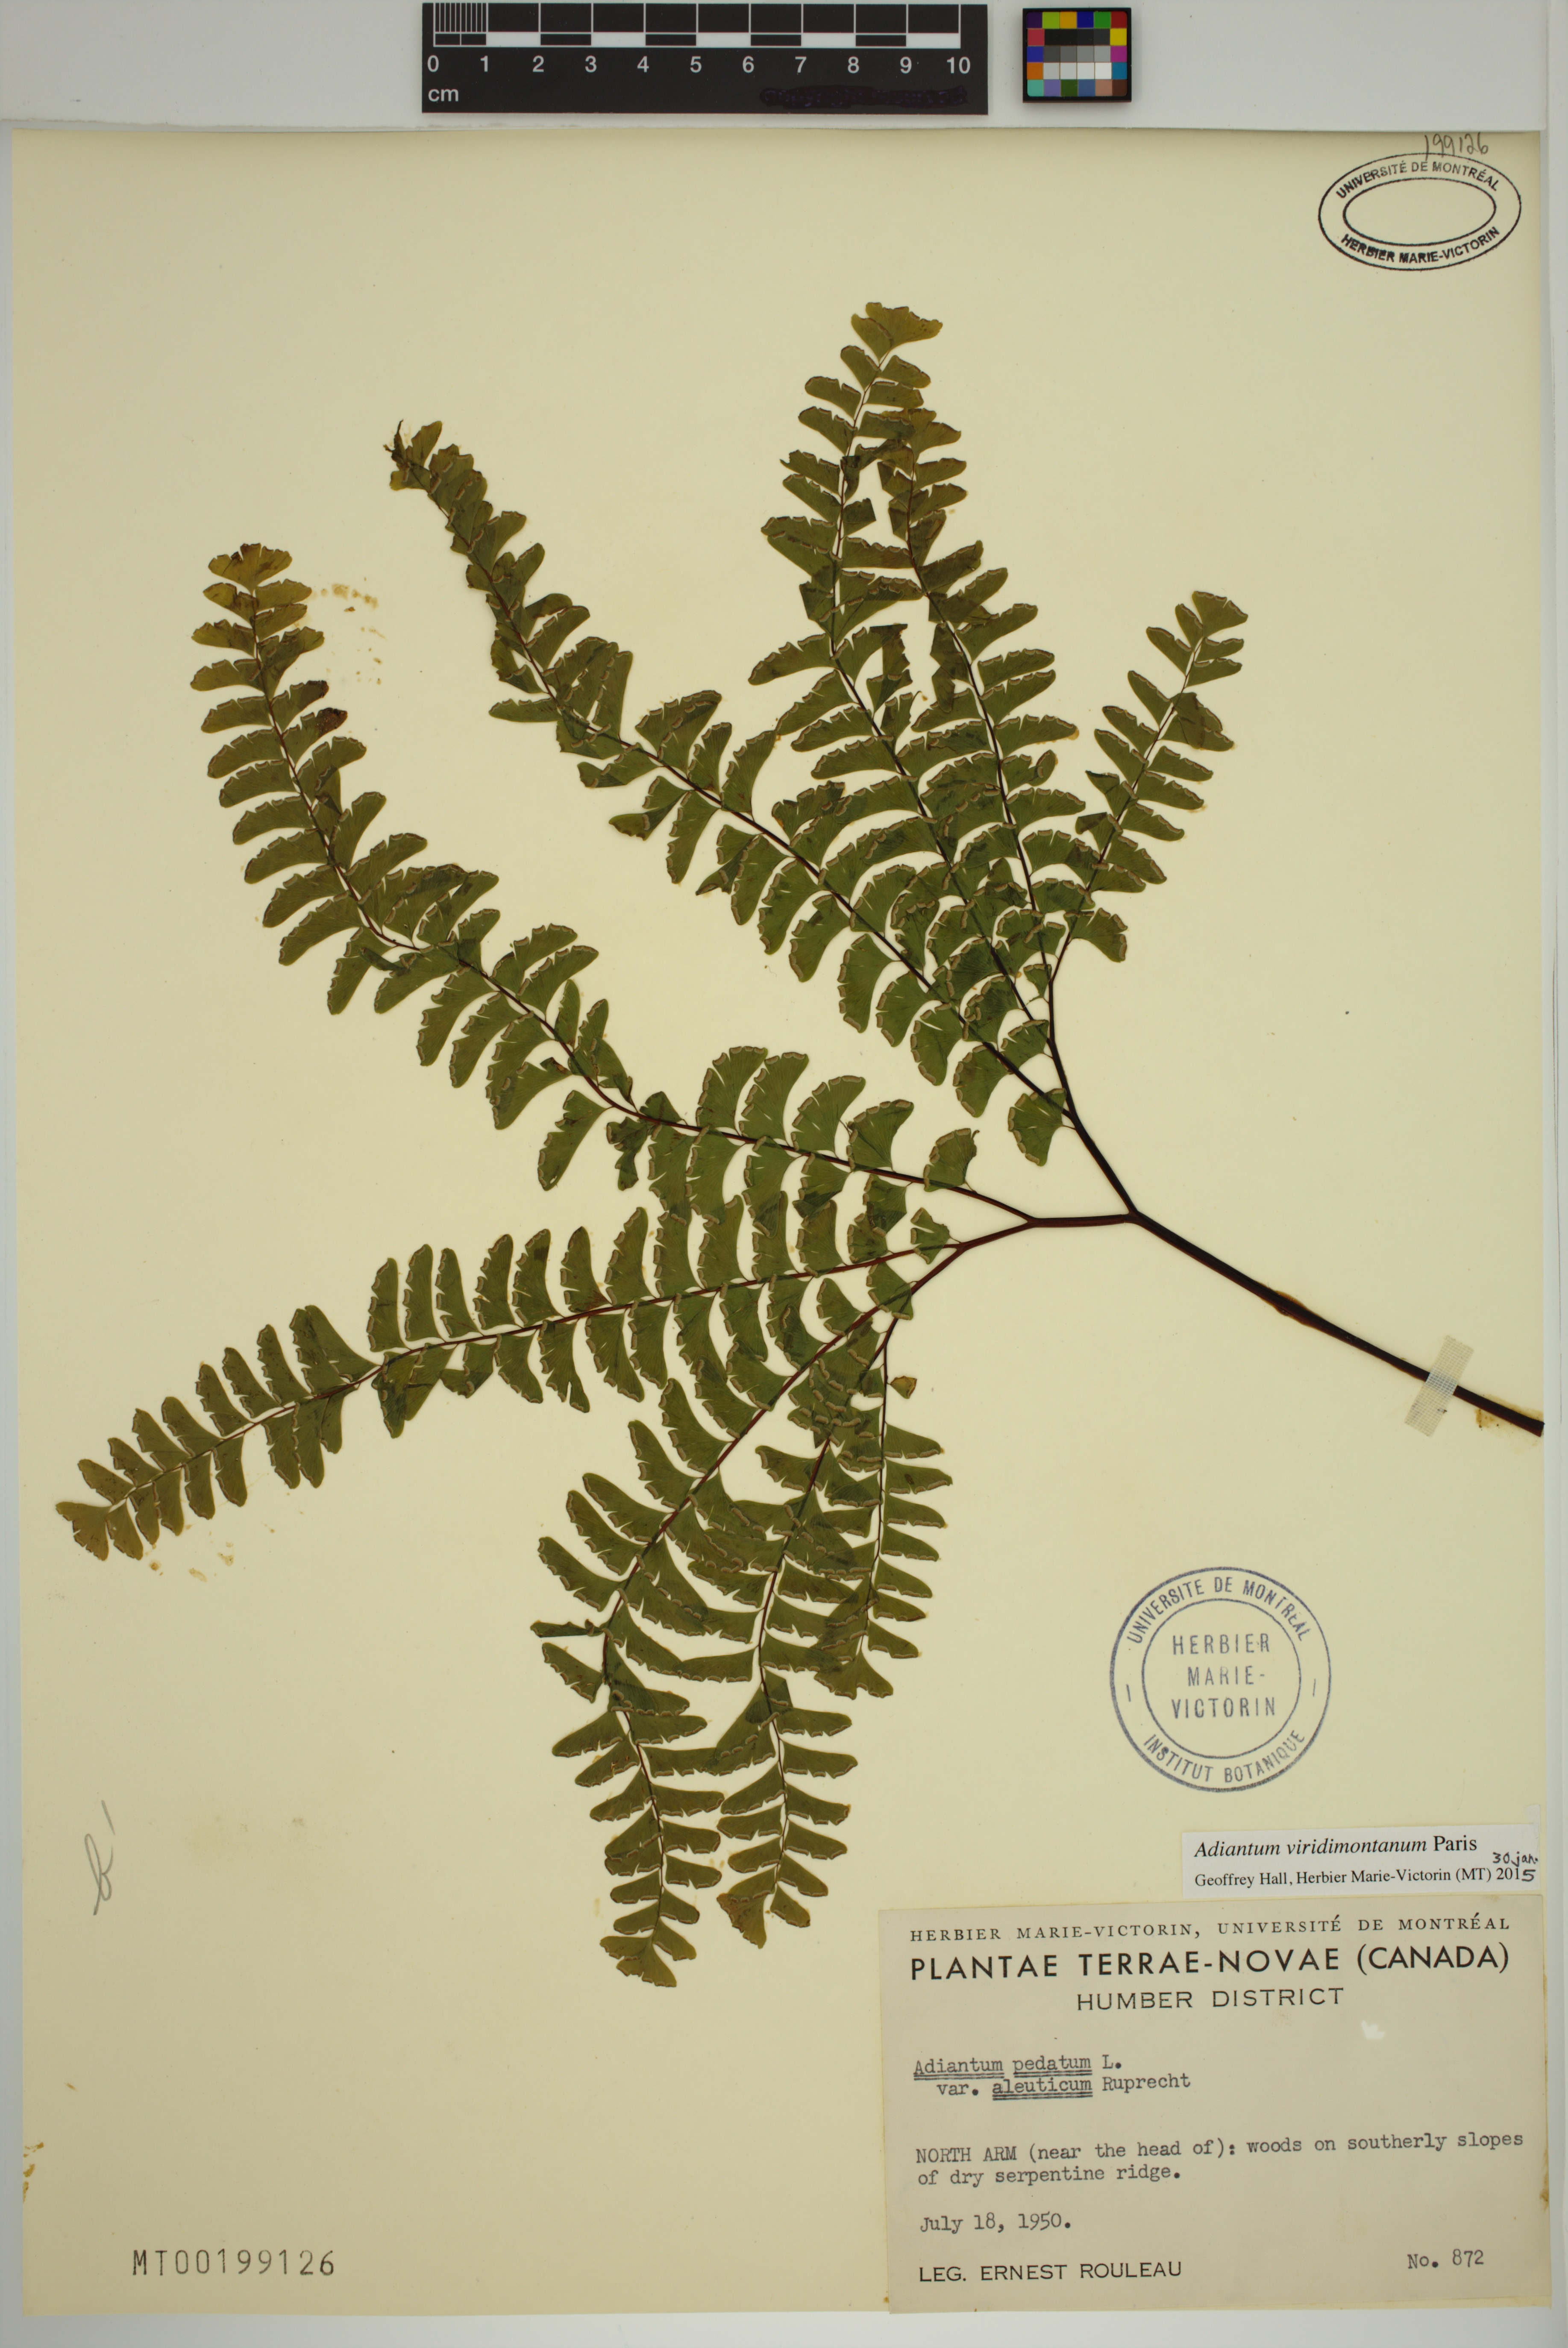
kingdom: Plantae
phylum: Tracheophyta
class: Polypodiopsida
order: Polypodiales
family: Pteridaceae
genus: Adiantum
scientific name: Adiantum viridimontanum
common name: Green mountain maidenhair
